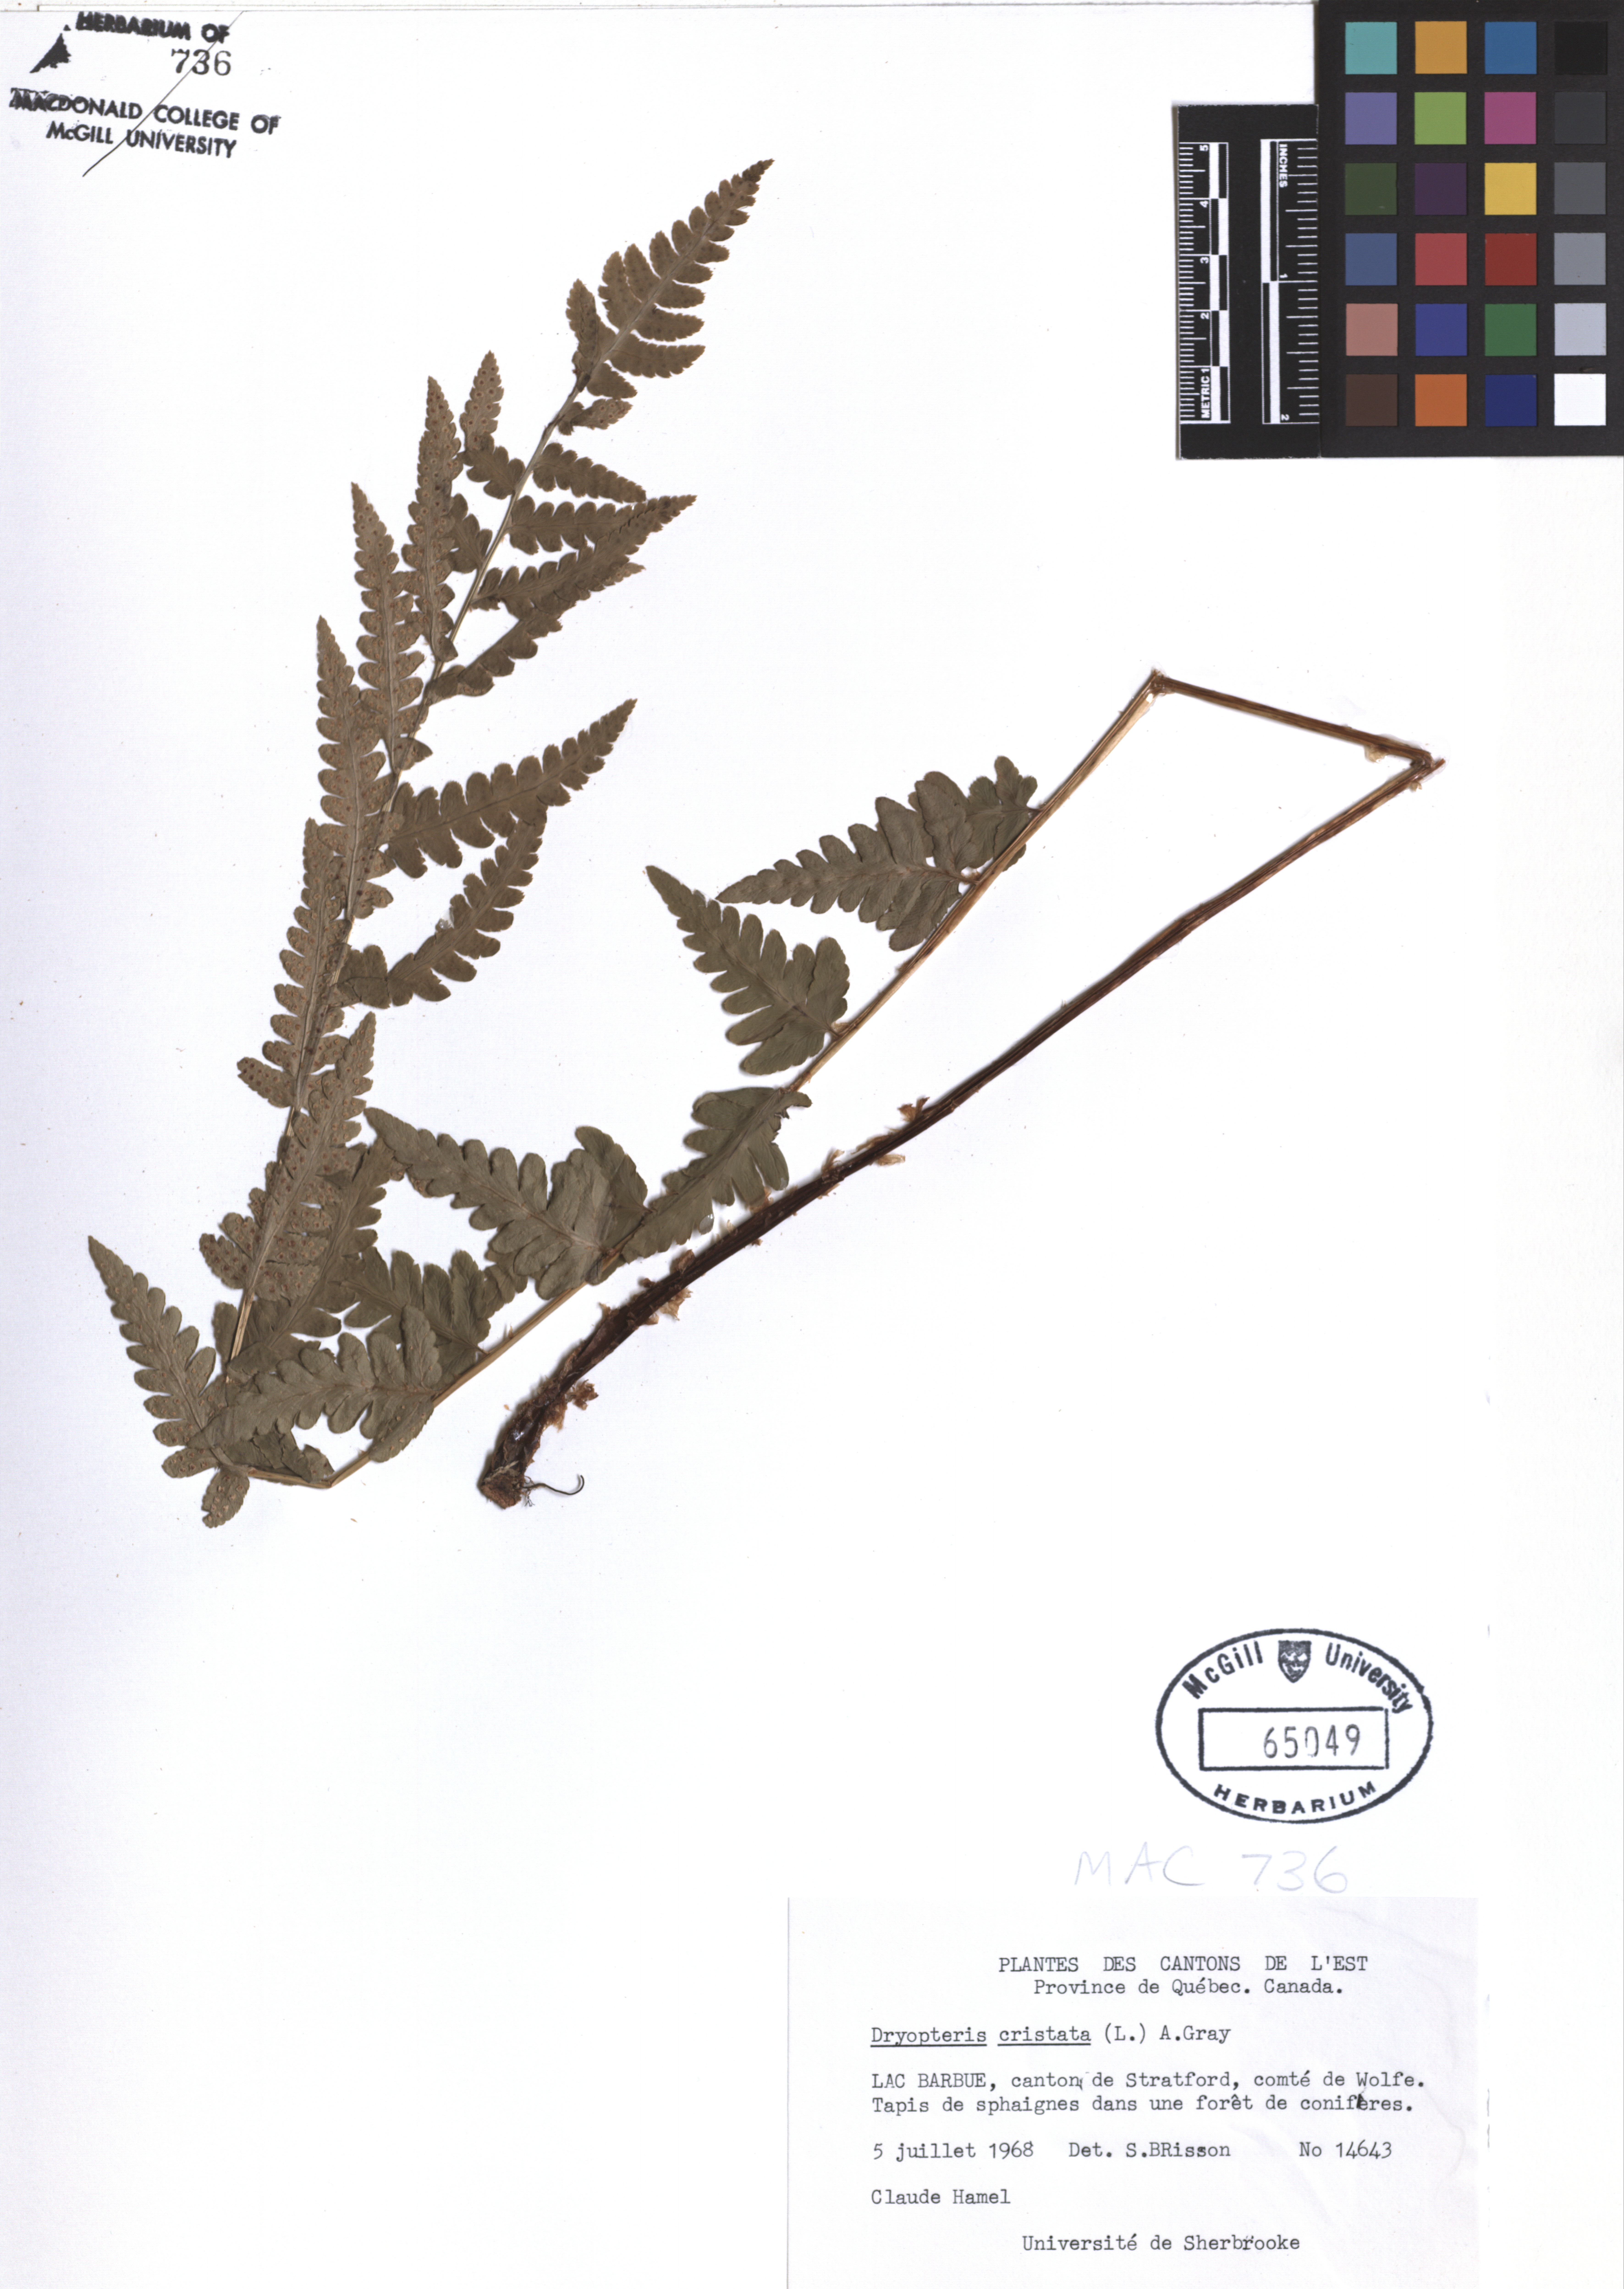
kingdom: Plantae
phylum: Tracheophyta
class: Polypodiopsida
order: Polypodiales
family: Dryopteridaceae
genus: Dryopteris
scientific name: Dryopteris cristata
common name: Crested wood fern
